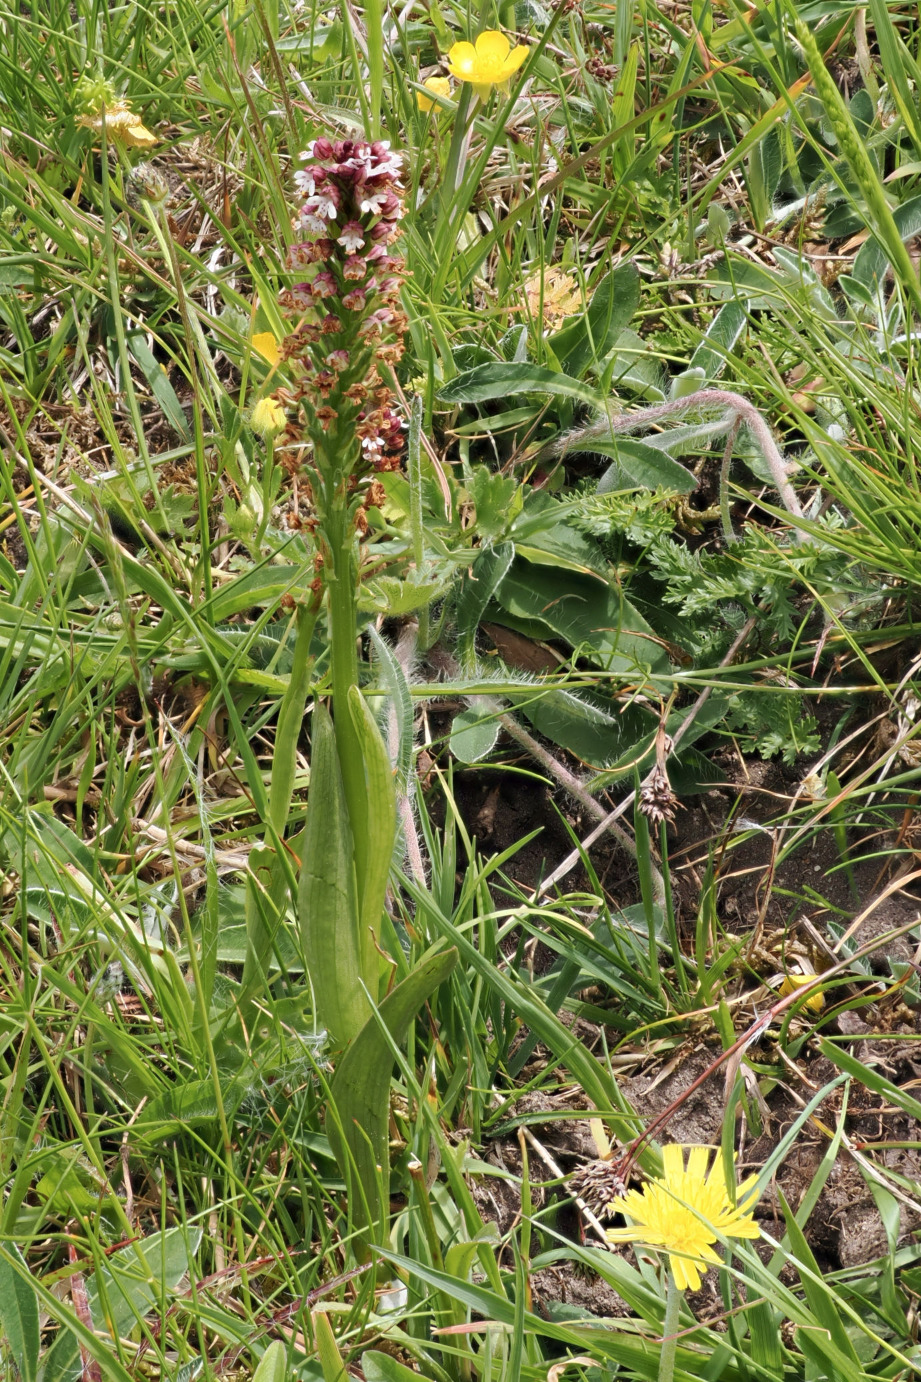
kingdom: Plantae
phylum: Tracheophyta
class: Liliopsida
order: Asparagales
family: Orchidaceae
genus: Neotinea
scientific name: Neotinea ustulata
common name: Bakkegøgeurt
